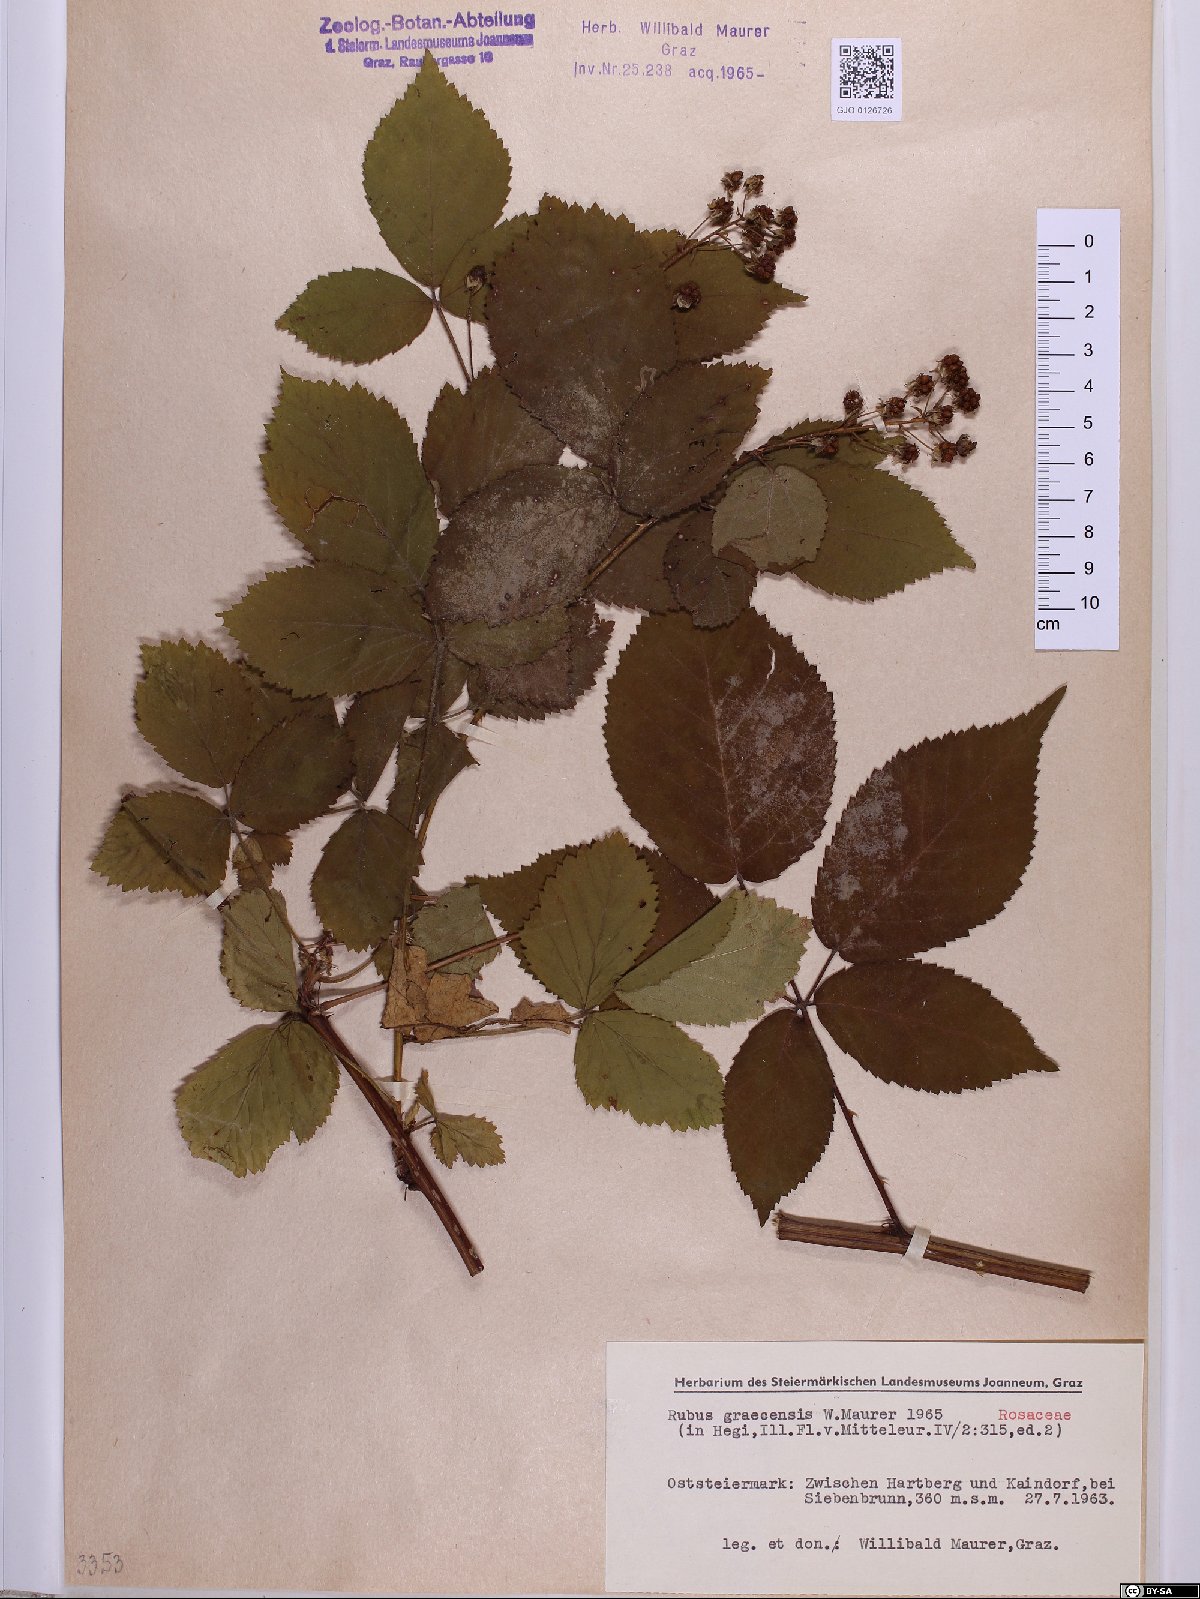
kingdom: Plantae
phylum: Tracheophyta
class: Magnoliopsida
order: Rosales
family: Rosaceae
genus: Rubus
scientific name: Rubus graecensis
